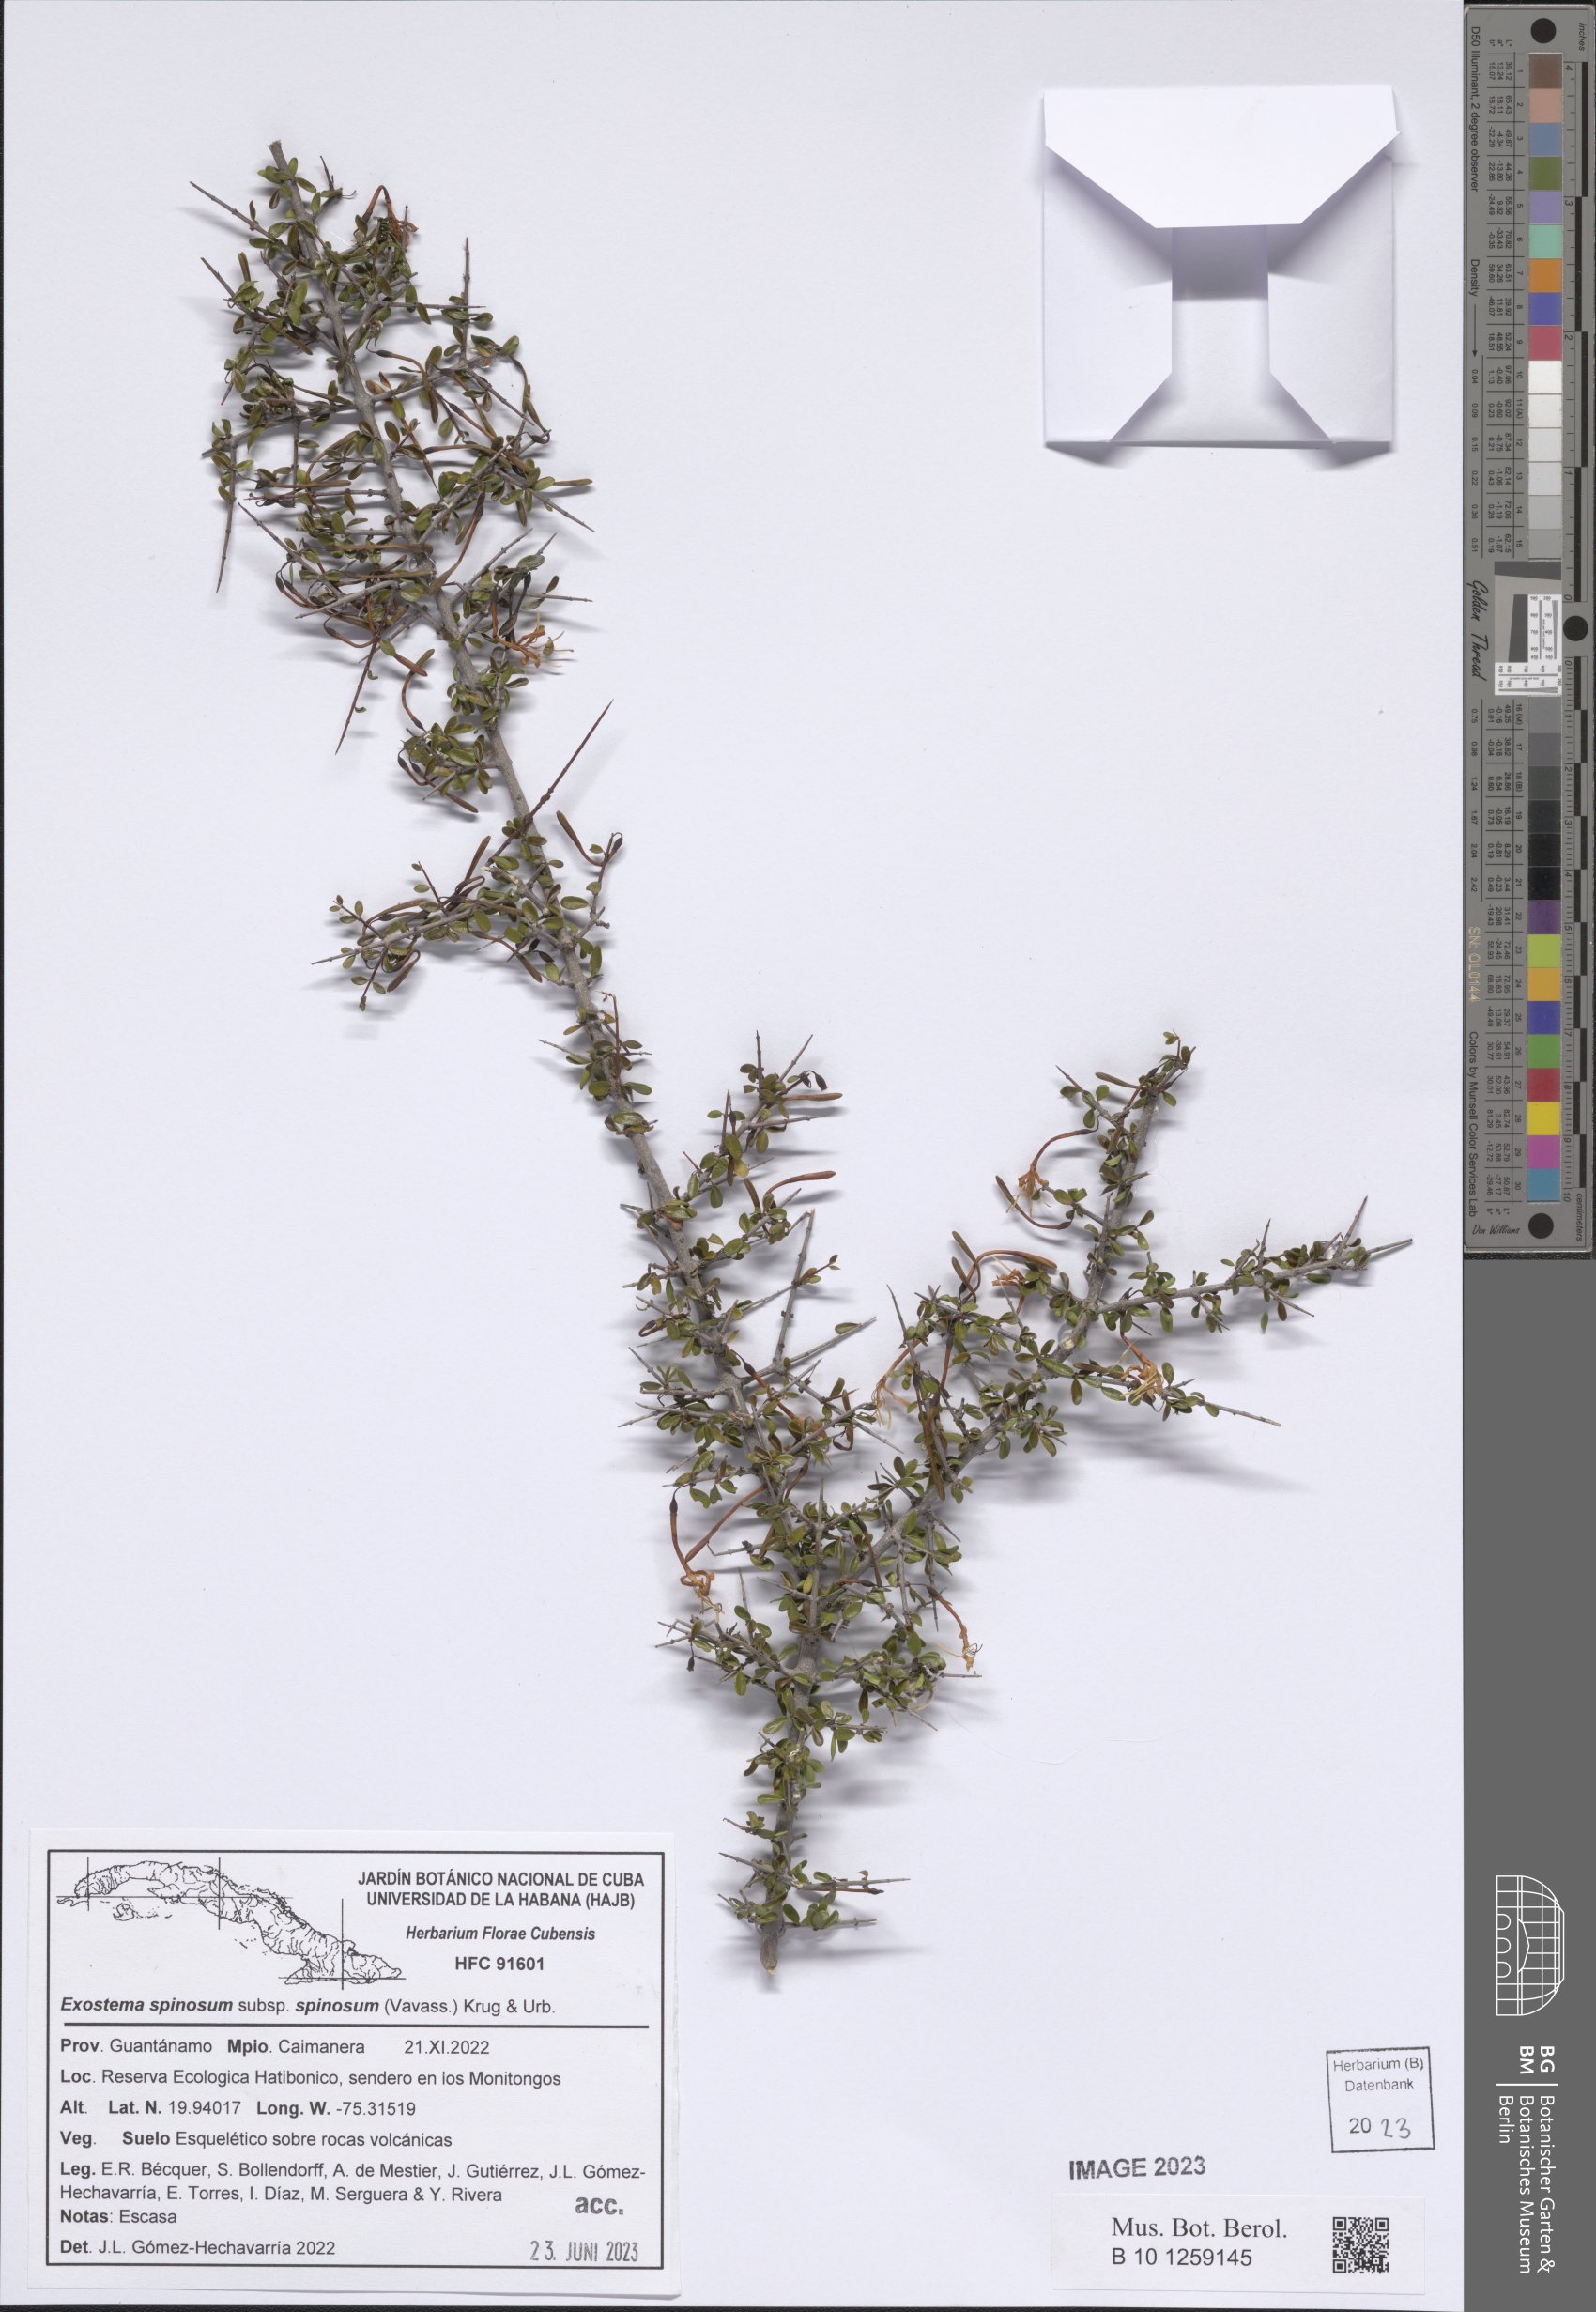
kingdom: Plantae
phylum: Tracheophyta
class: Magnoliopsida
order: Gentianales
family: Rubiaceae
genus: Exostema
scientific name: Exostema spinosum
